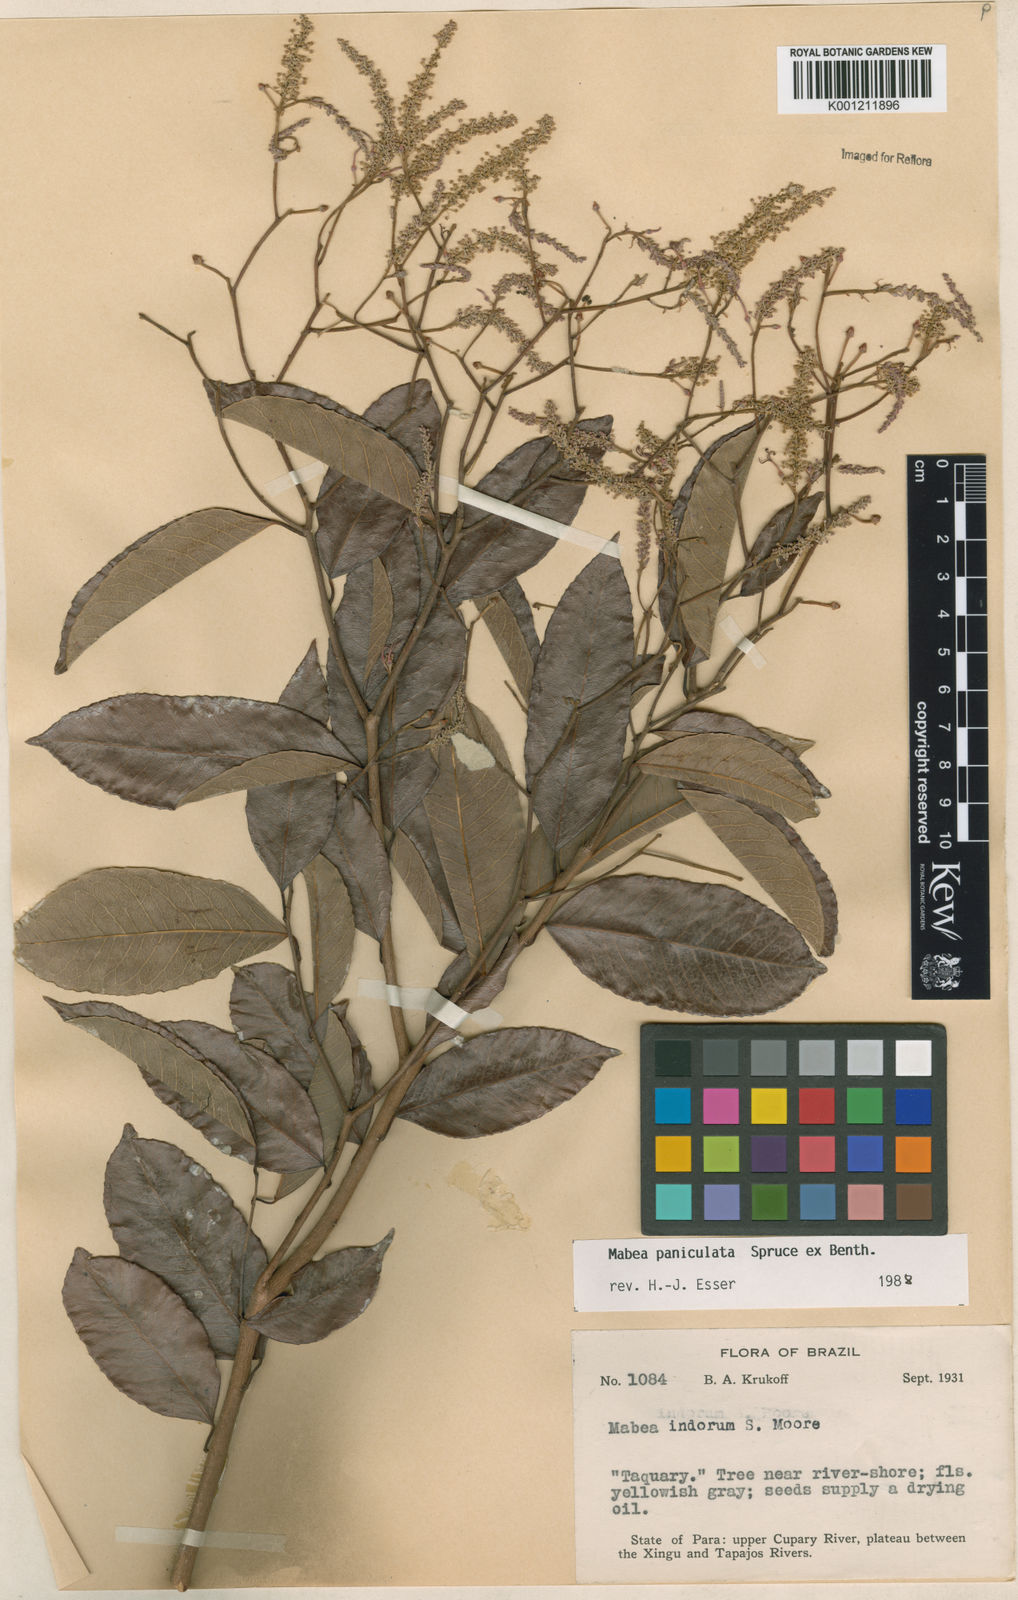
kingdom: Plantae
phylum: Tracheophyta
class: Magnoliopsida
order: Malpighiales
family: Euphorbiaceae
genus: Mabea
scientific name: Mabea paniculata
